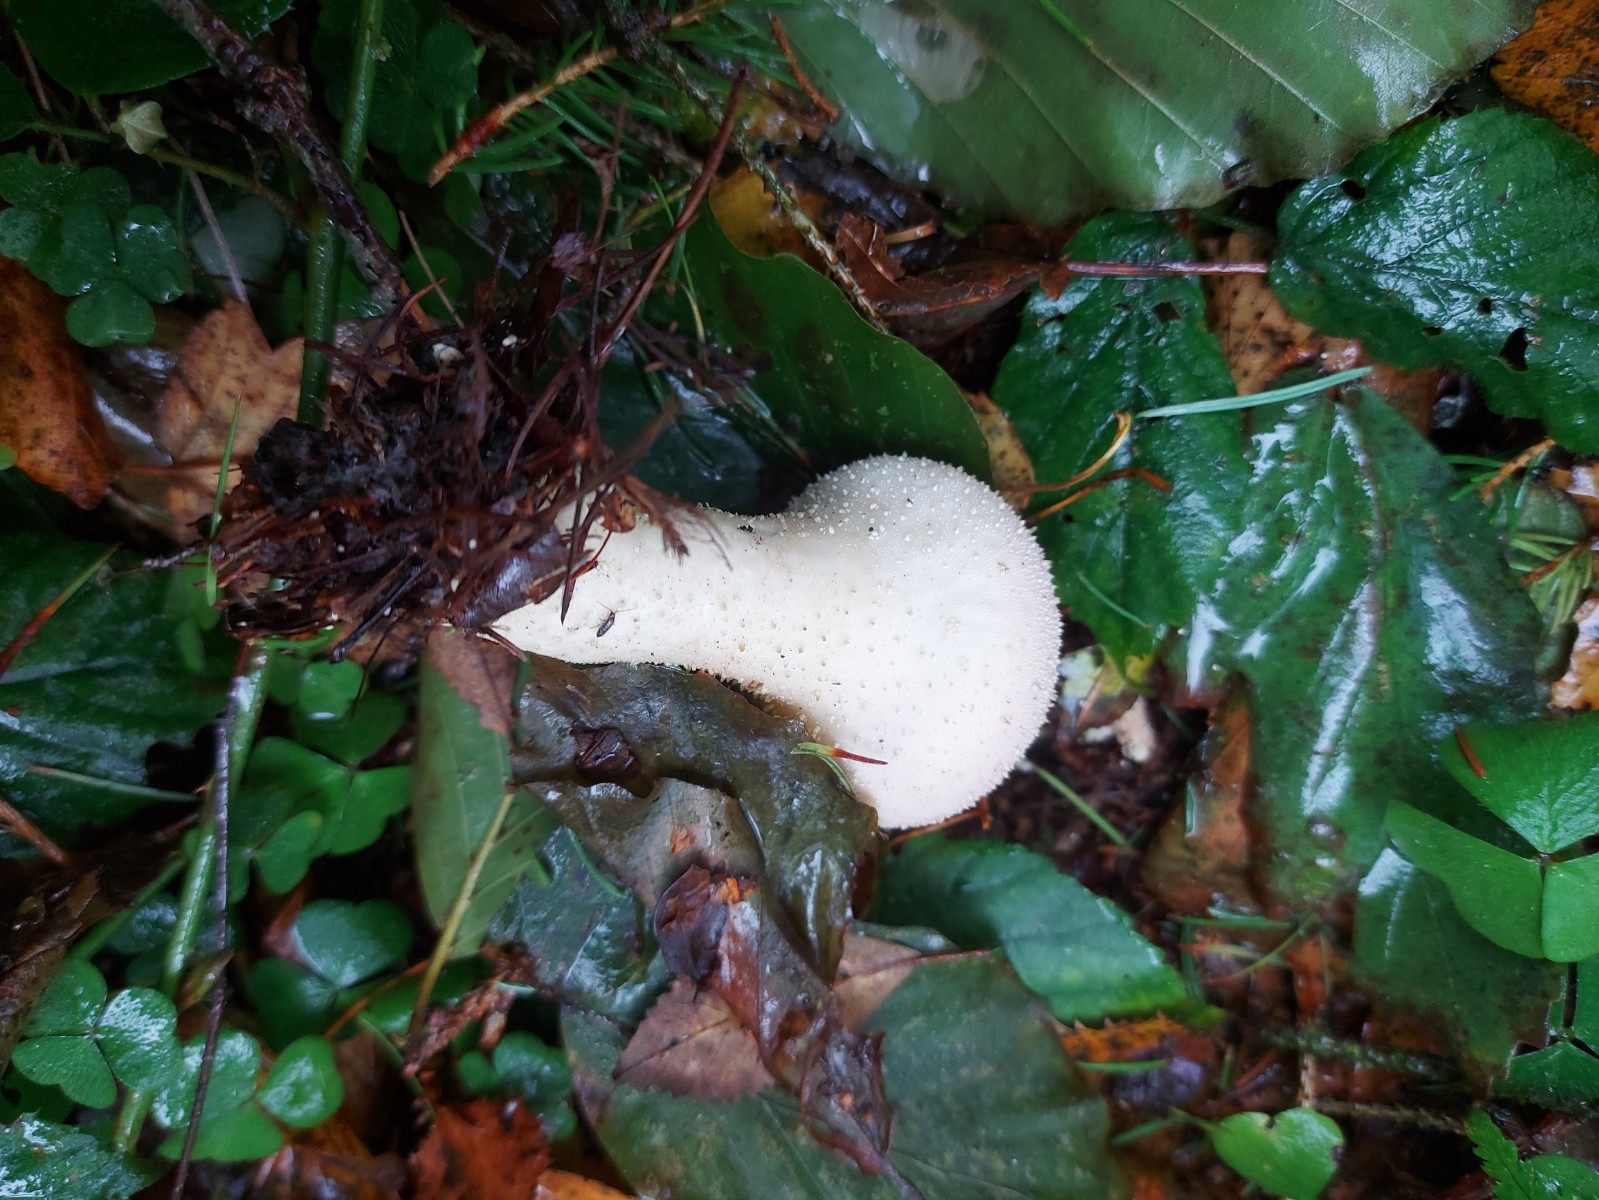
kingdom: Fungi
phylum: Basidiomycota
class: Agaricomycetes
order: Agaricales
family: Lycoperdaceae
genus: Lycoperdon
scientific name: Lycoperdon perlatum
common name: krystal-støvbold
